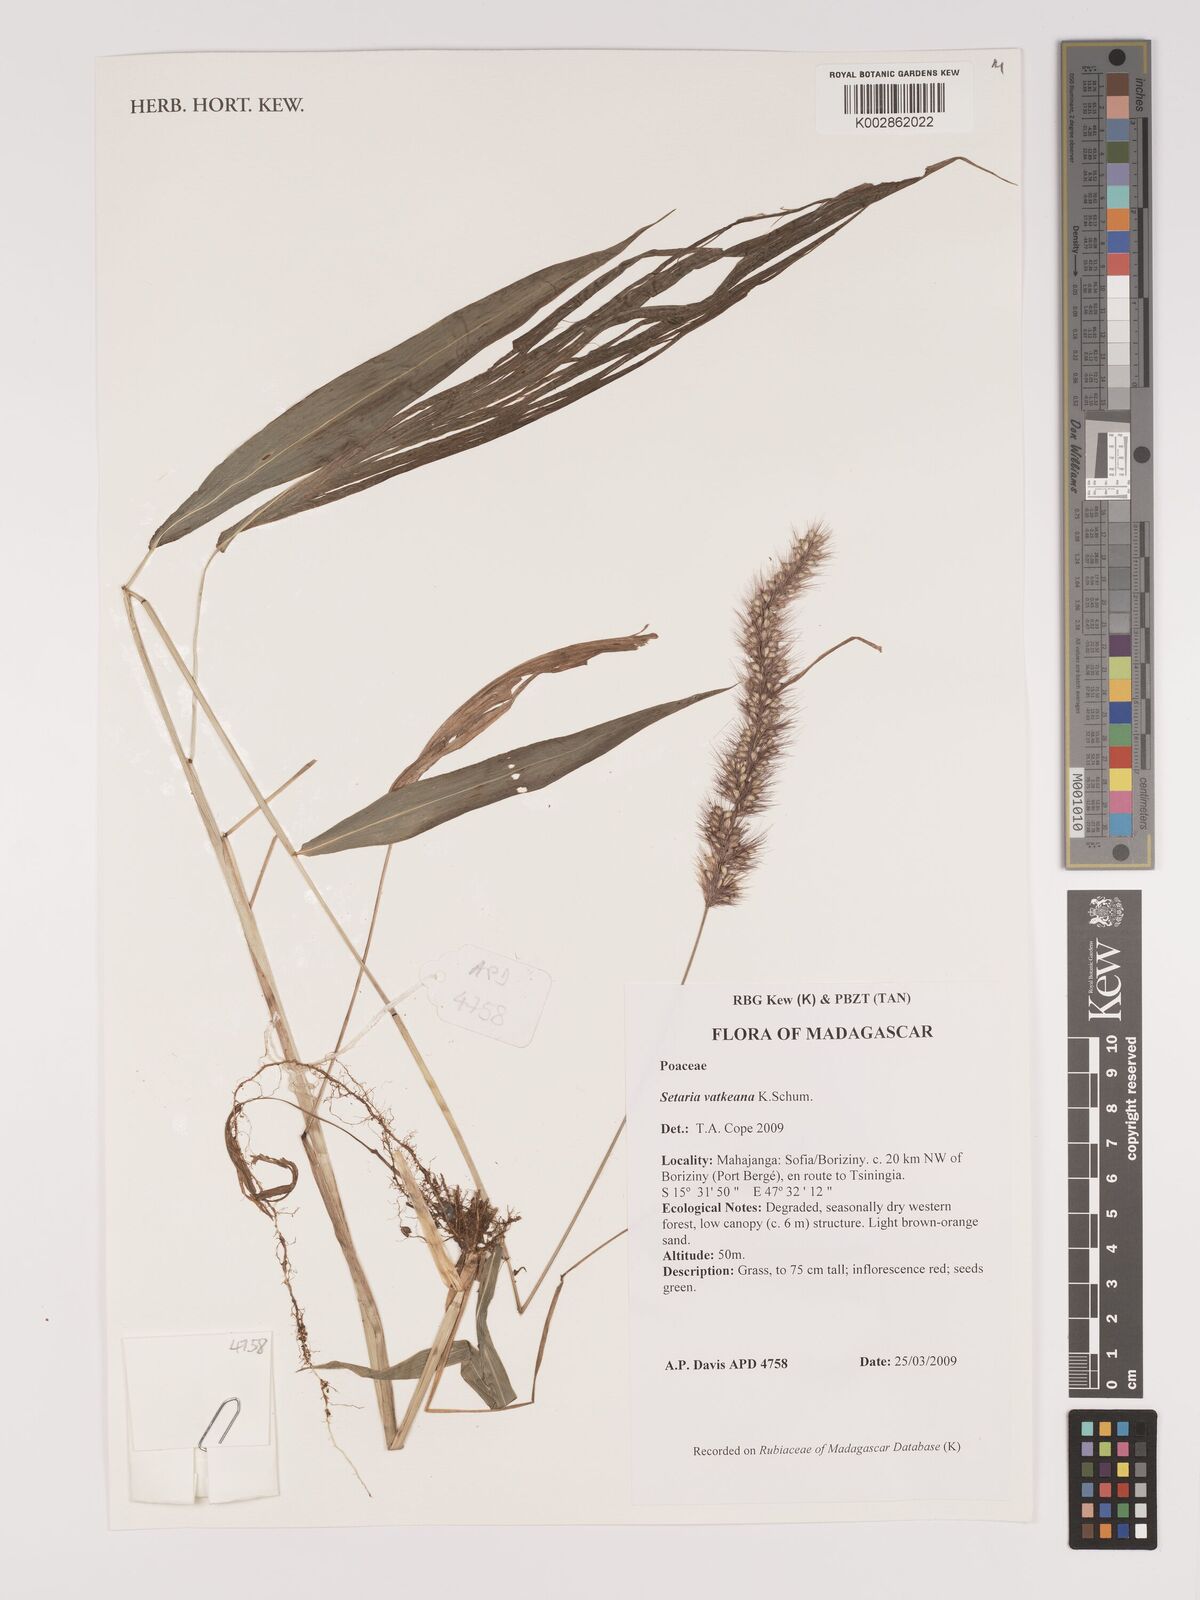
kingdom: Plantae
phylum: Tracheophyta
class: Liliopsida
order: Poales
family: Poaceae
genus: Setaria
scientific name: Setaria vatkeana
